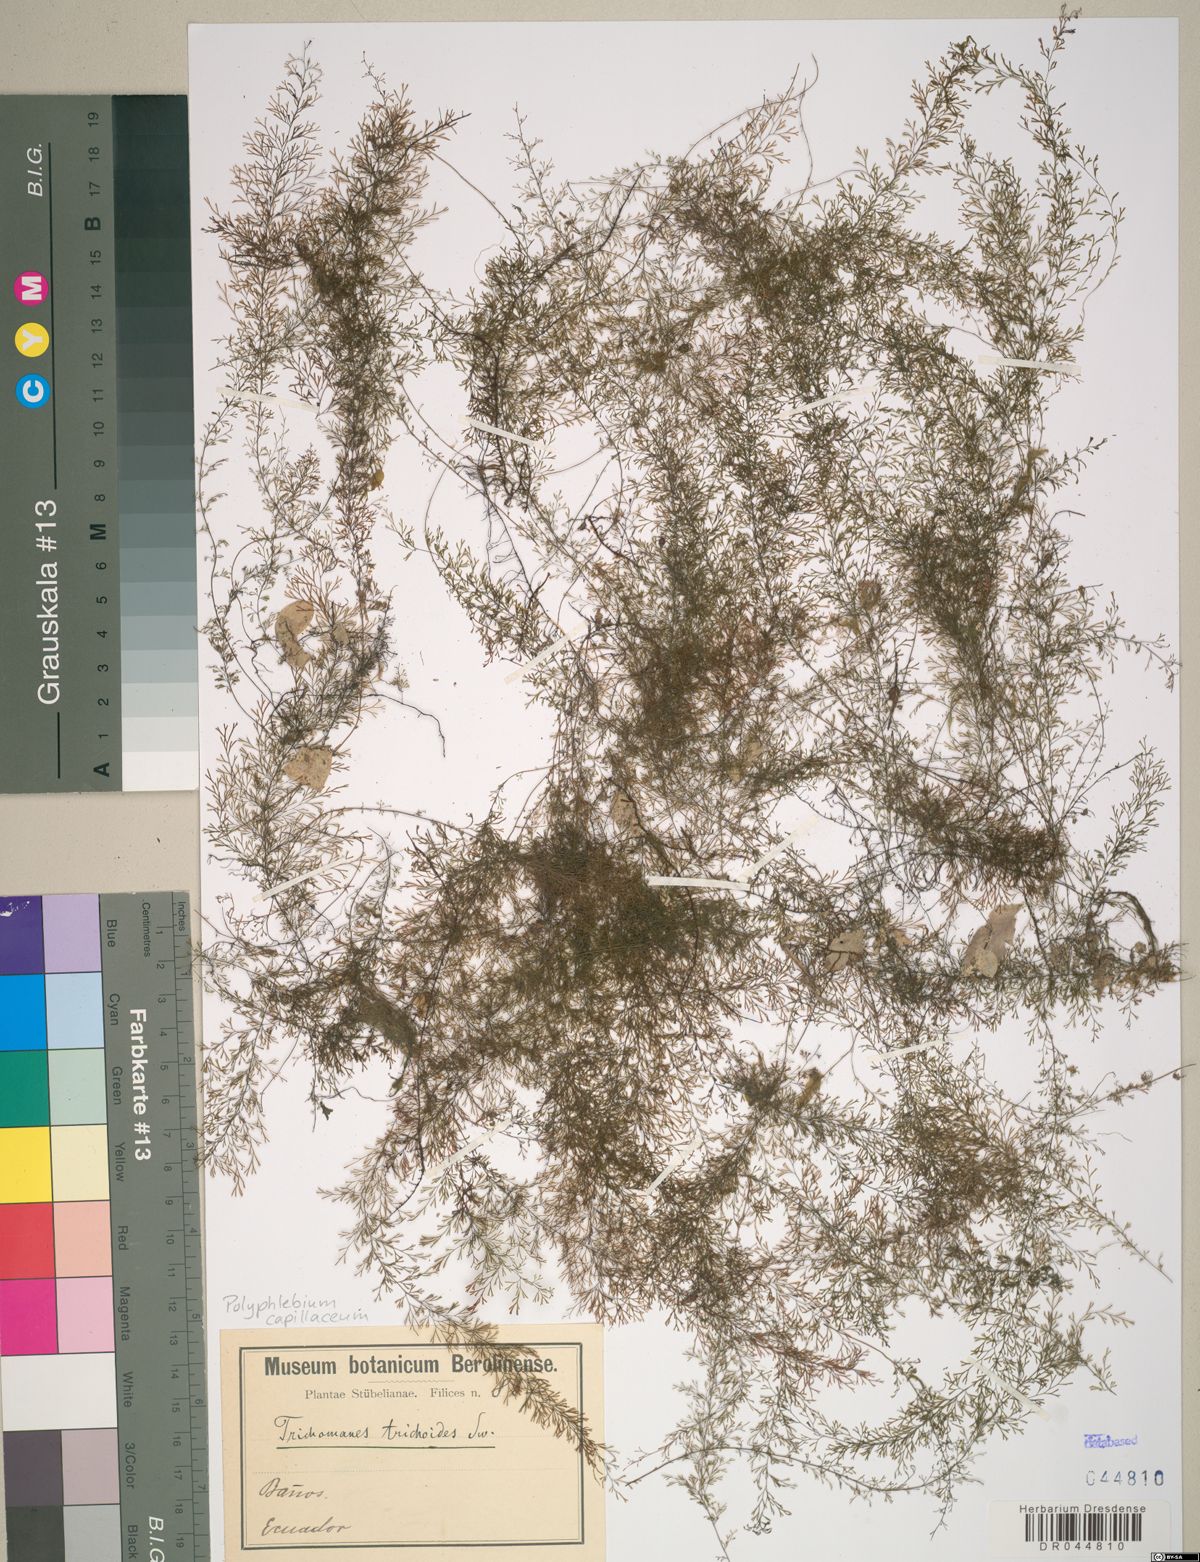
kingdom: Plantae
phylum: Tracheophyta
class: Polypodiopsida
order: Hymenophyllales
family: Hymenophyllaceae
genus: Polyphlebium
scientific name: Polyphlebium capillaceum
